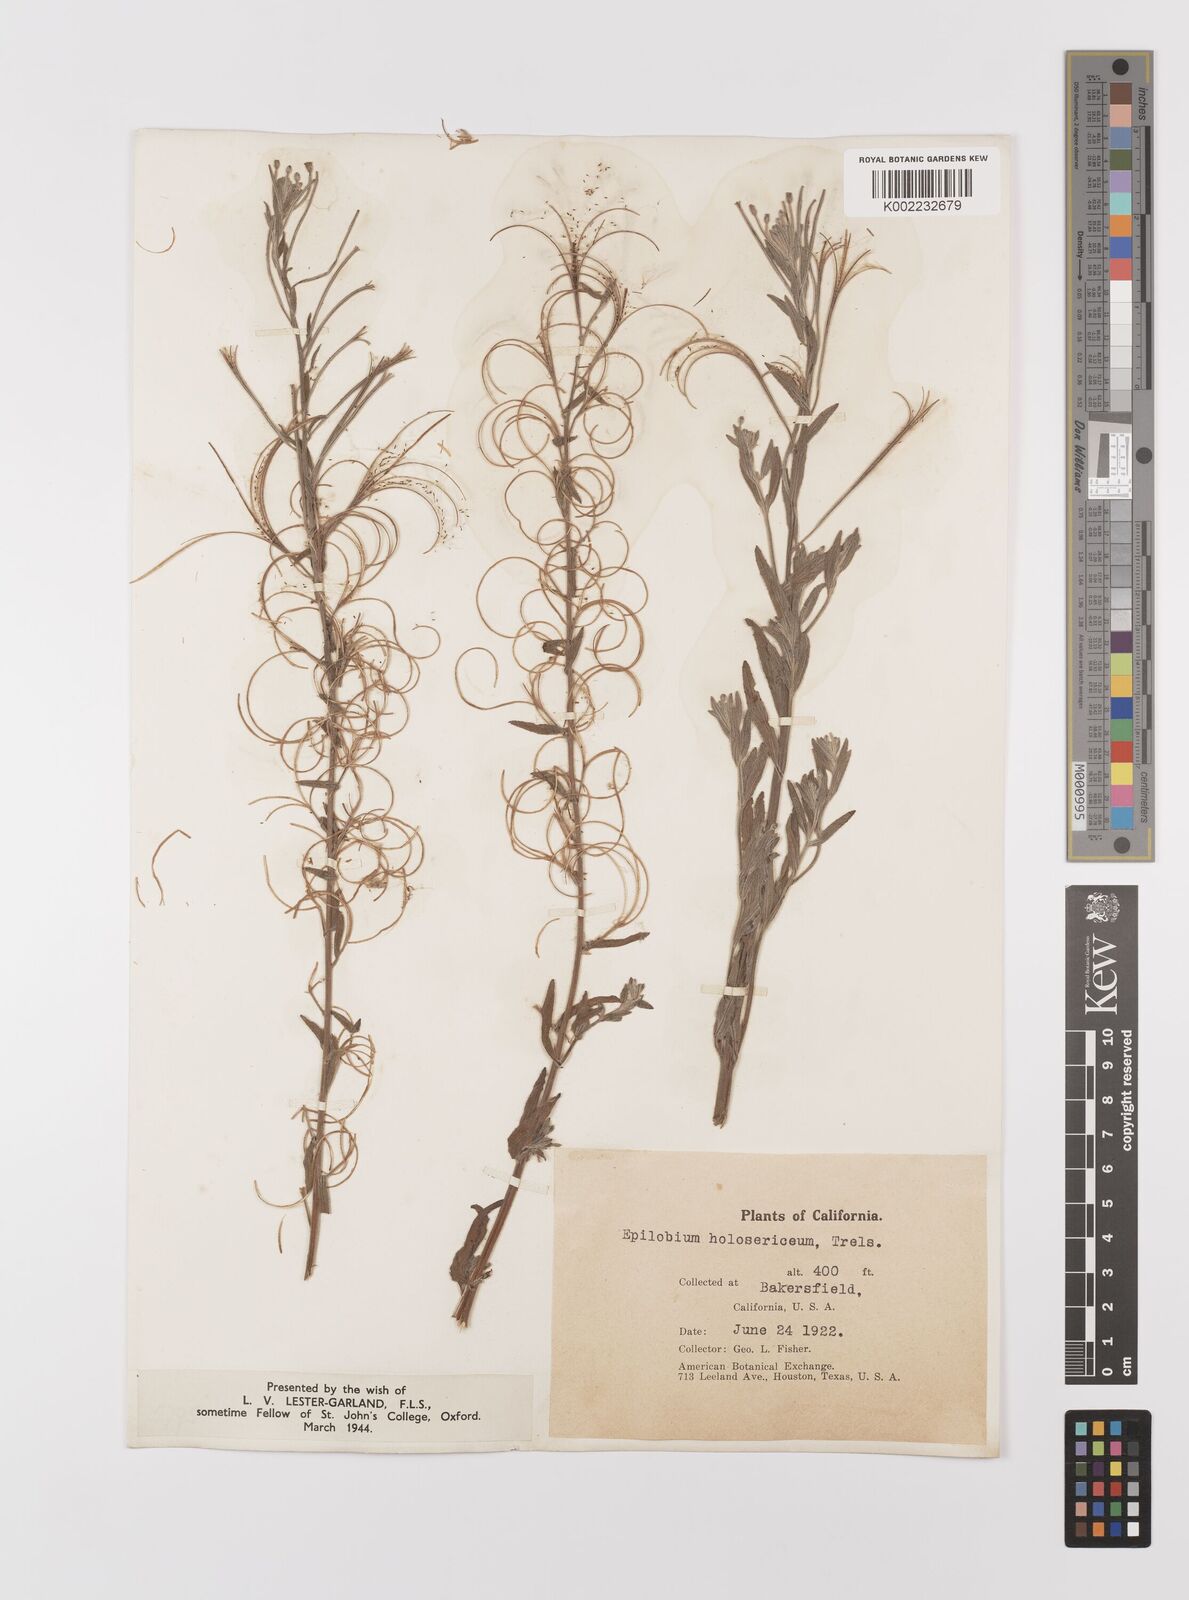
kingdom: Plantae
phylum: Tracheophyta
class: Magnoliopsida
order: Myrtales
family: Onagraceae
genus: Epilobium
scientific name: Epilobium ciliatum
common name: American willowherb
